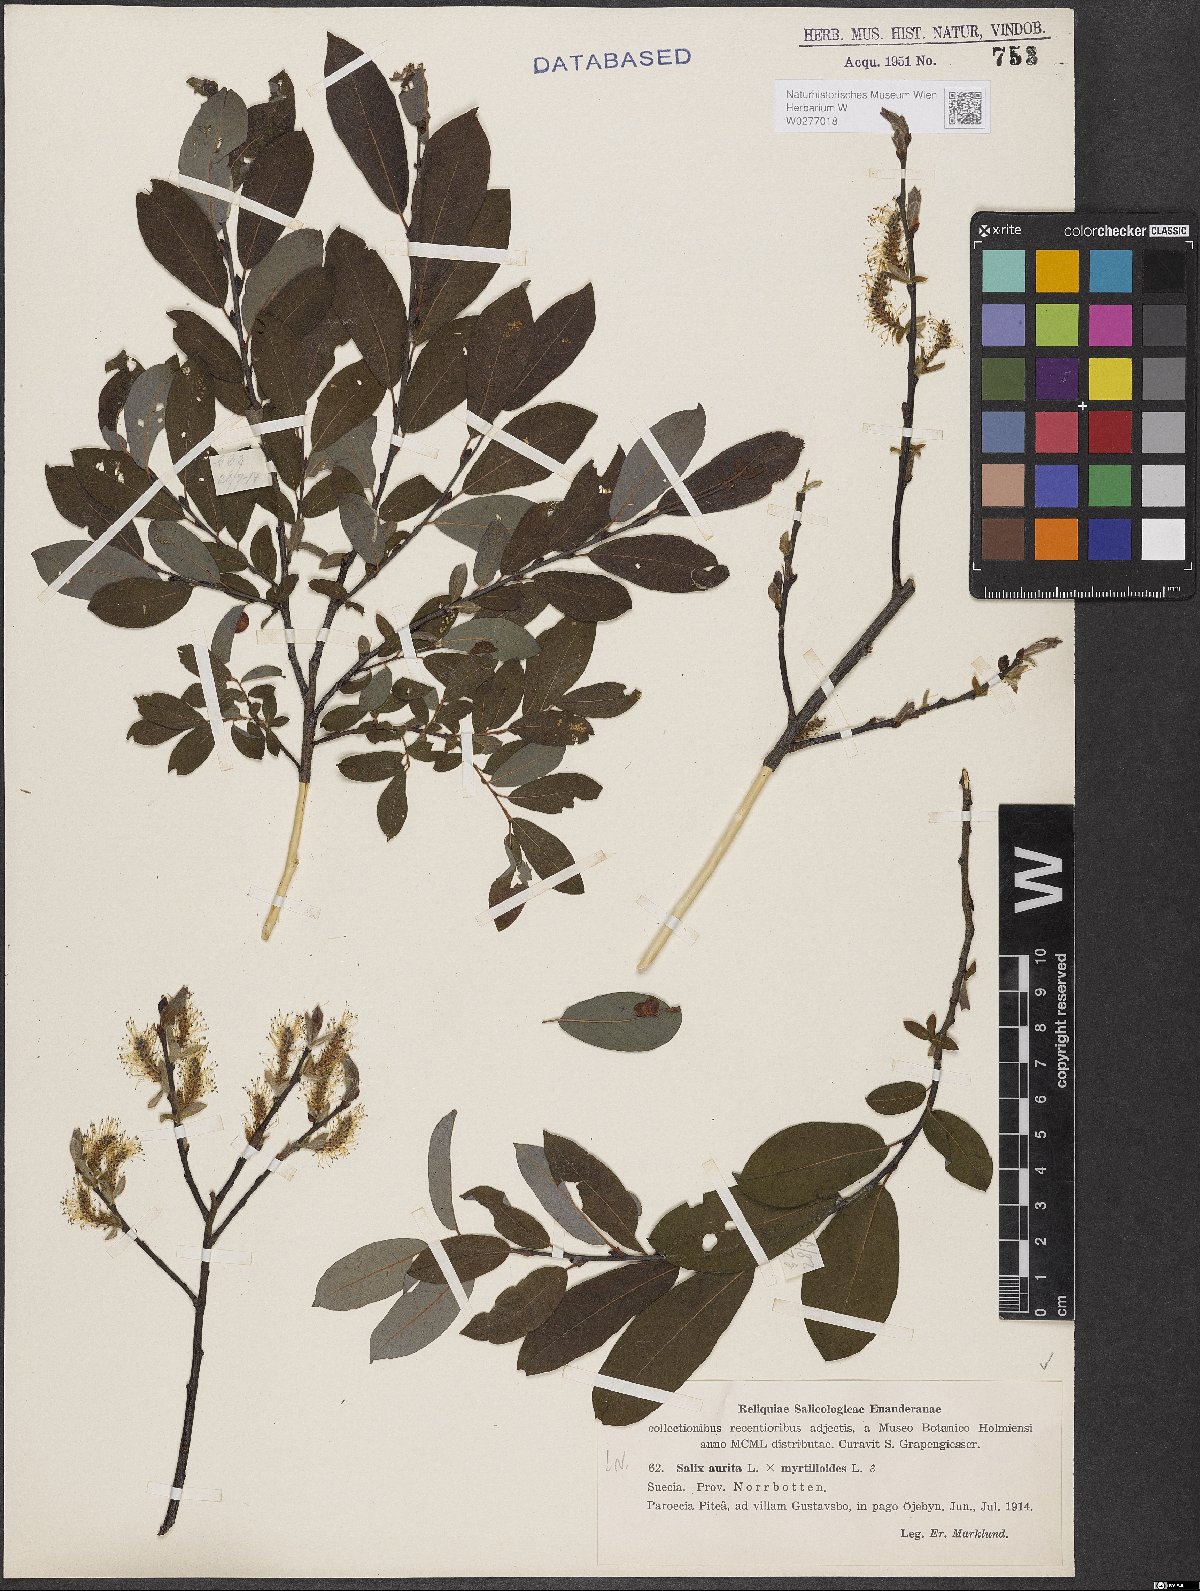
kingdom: Plantae
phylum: Tracheophyta
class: Magnoliopsida
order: Malpighiales
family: Salicaceae
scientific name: Salicaceae
